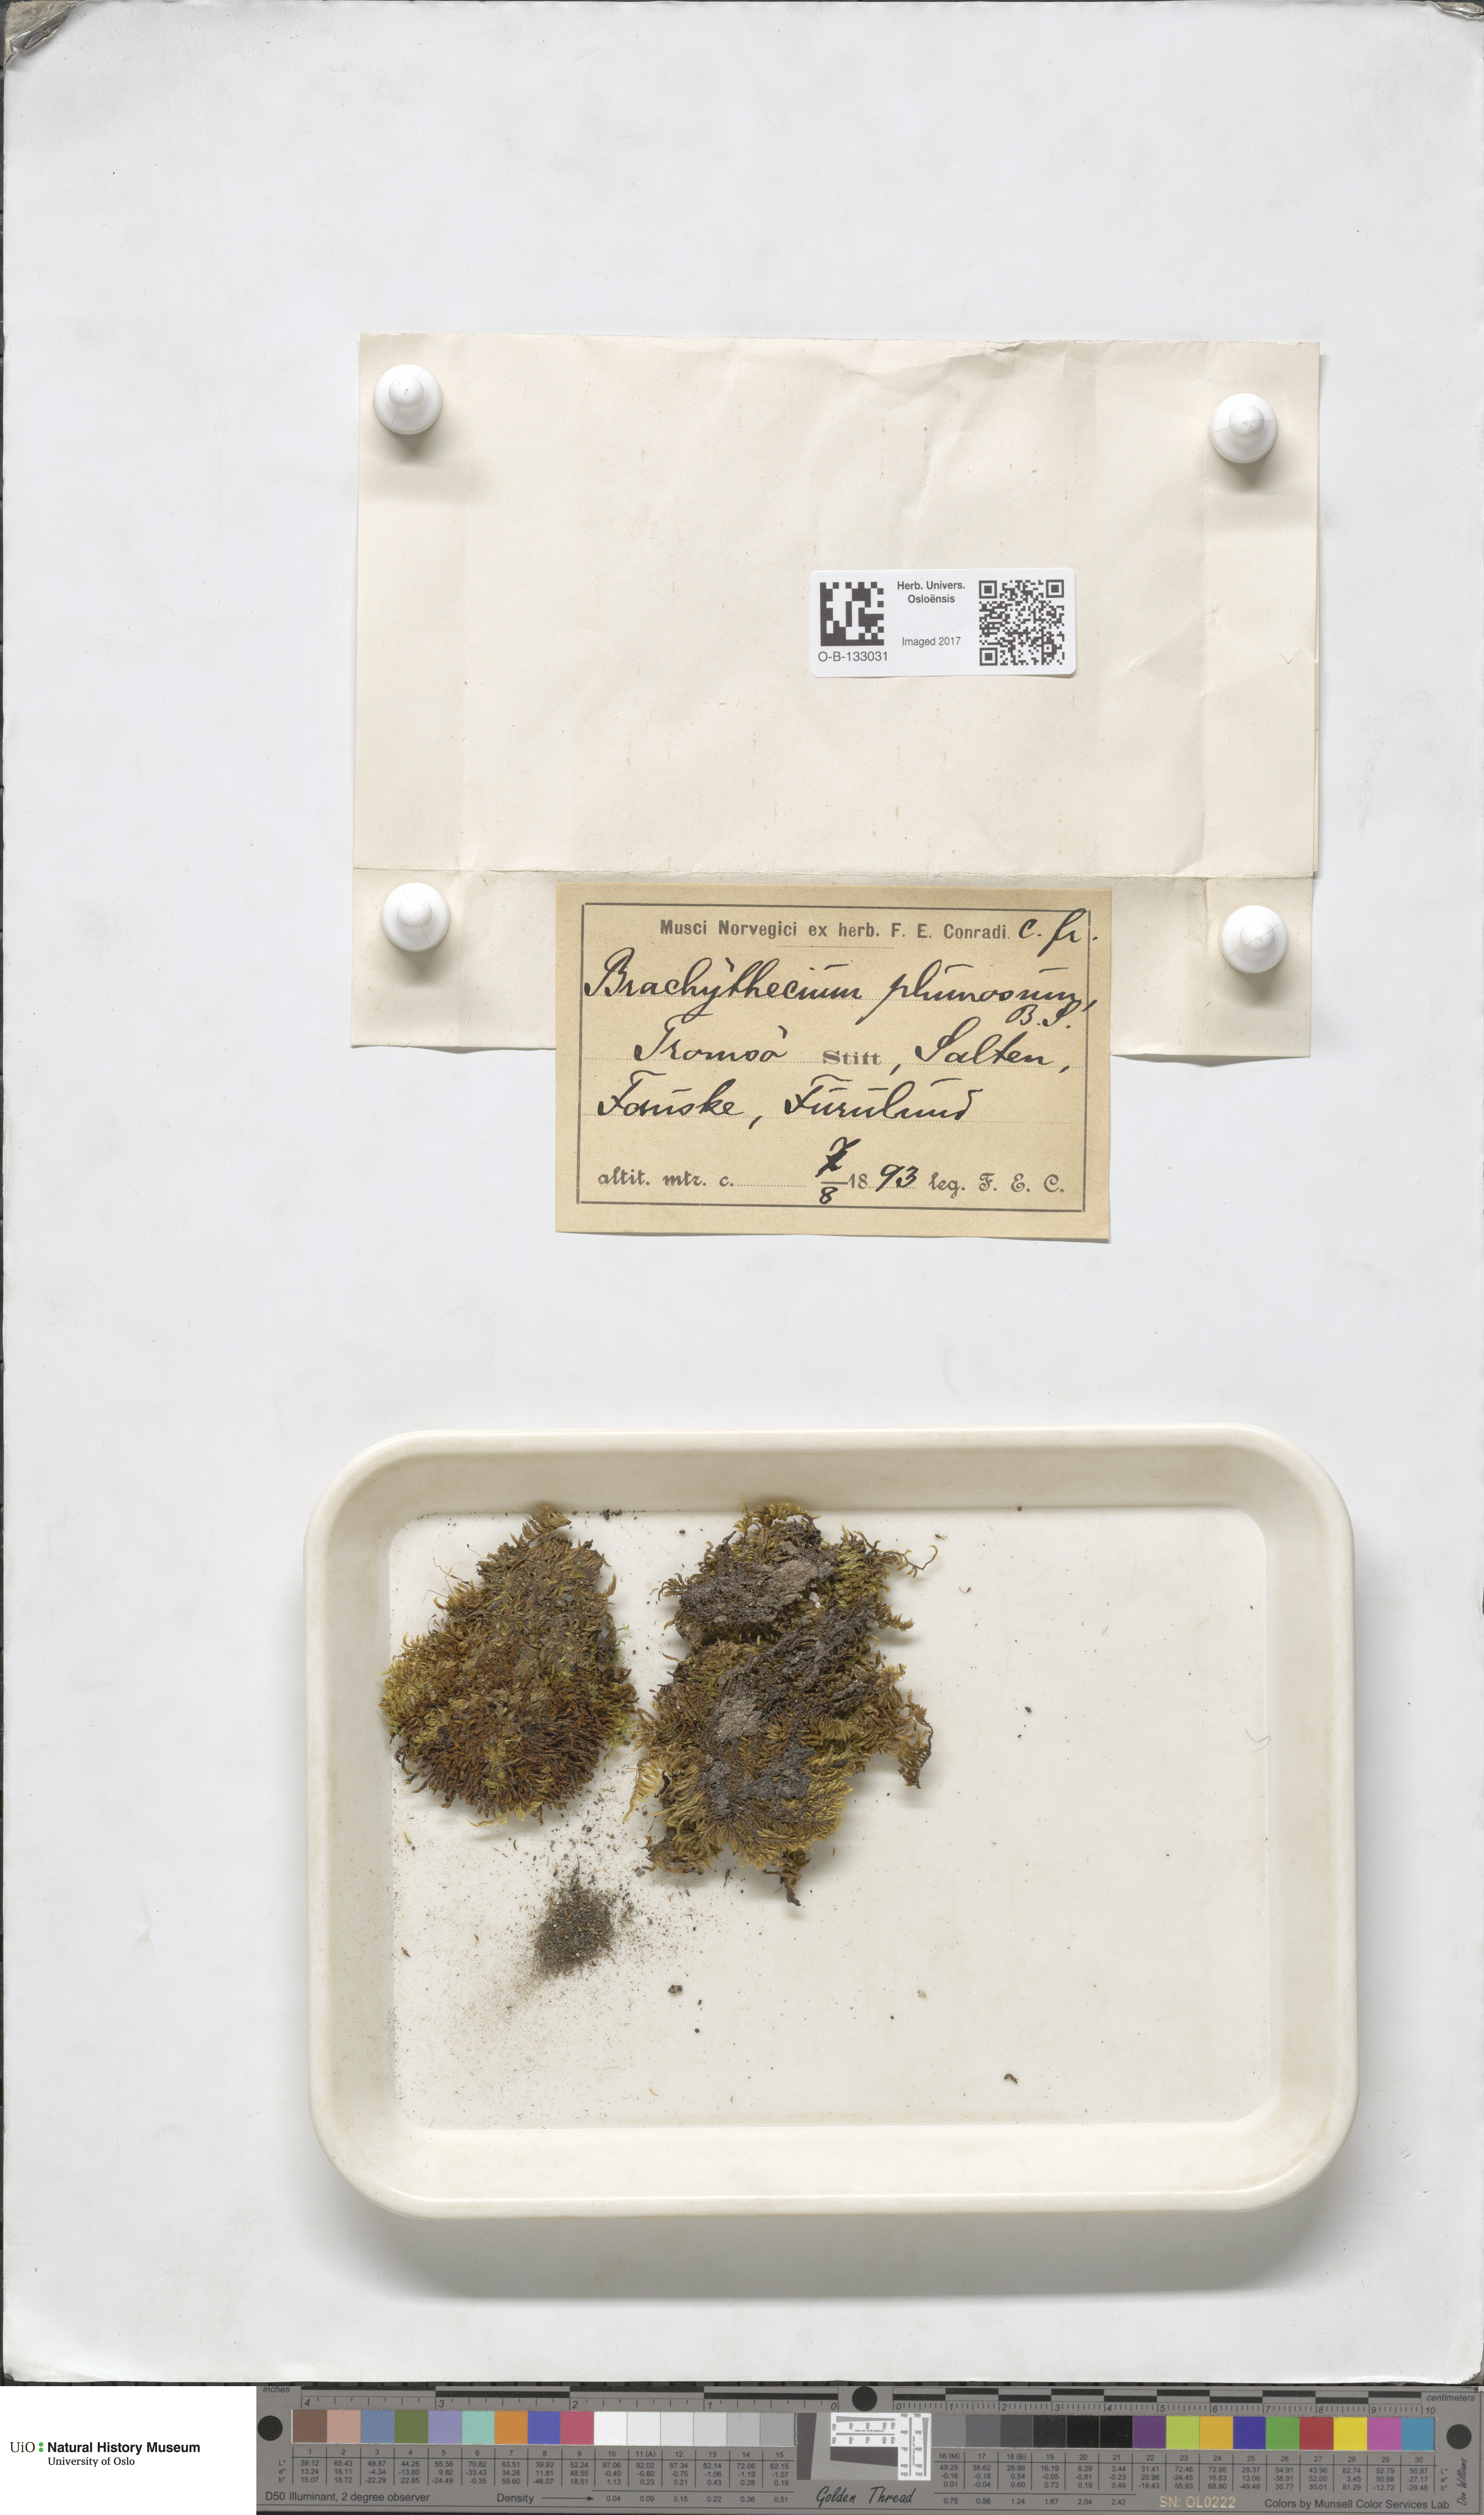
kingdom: Plantae
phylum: Bryophyta
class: Bryopsida
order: Hypnales
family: Brachytheciaceae
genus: Sciuro-hypnum
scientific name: Sciuro-hypnum plumosum
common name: Rusty feather-moss
